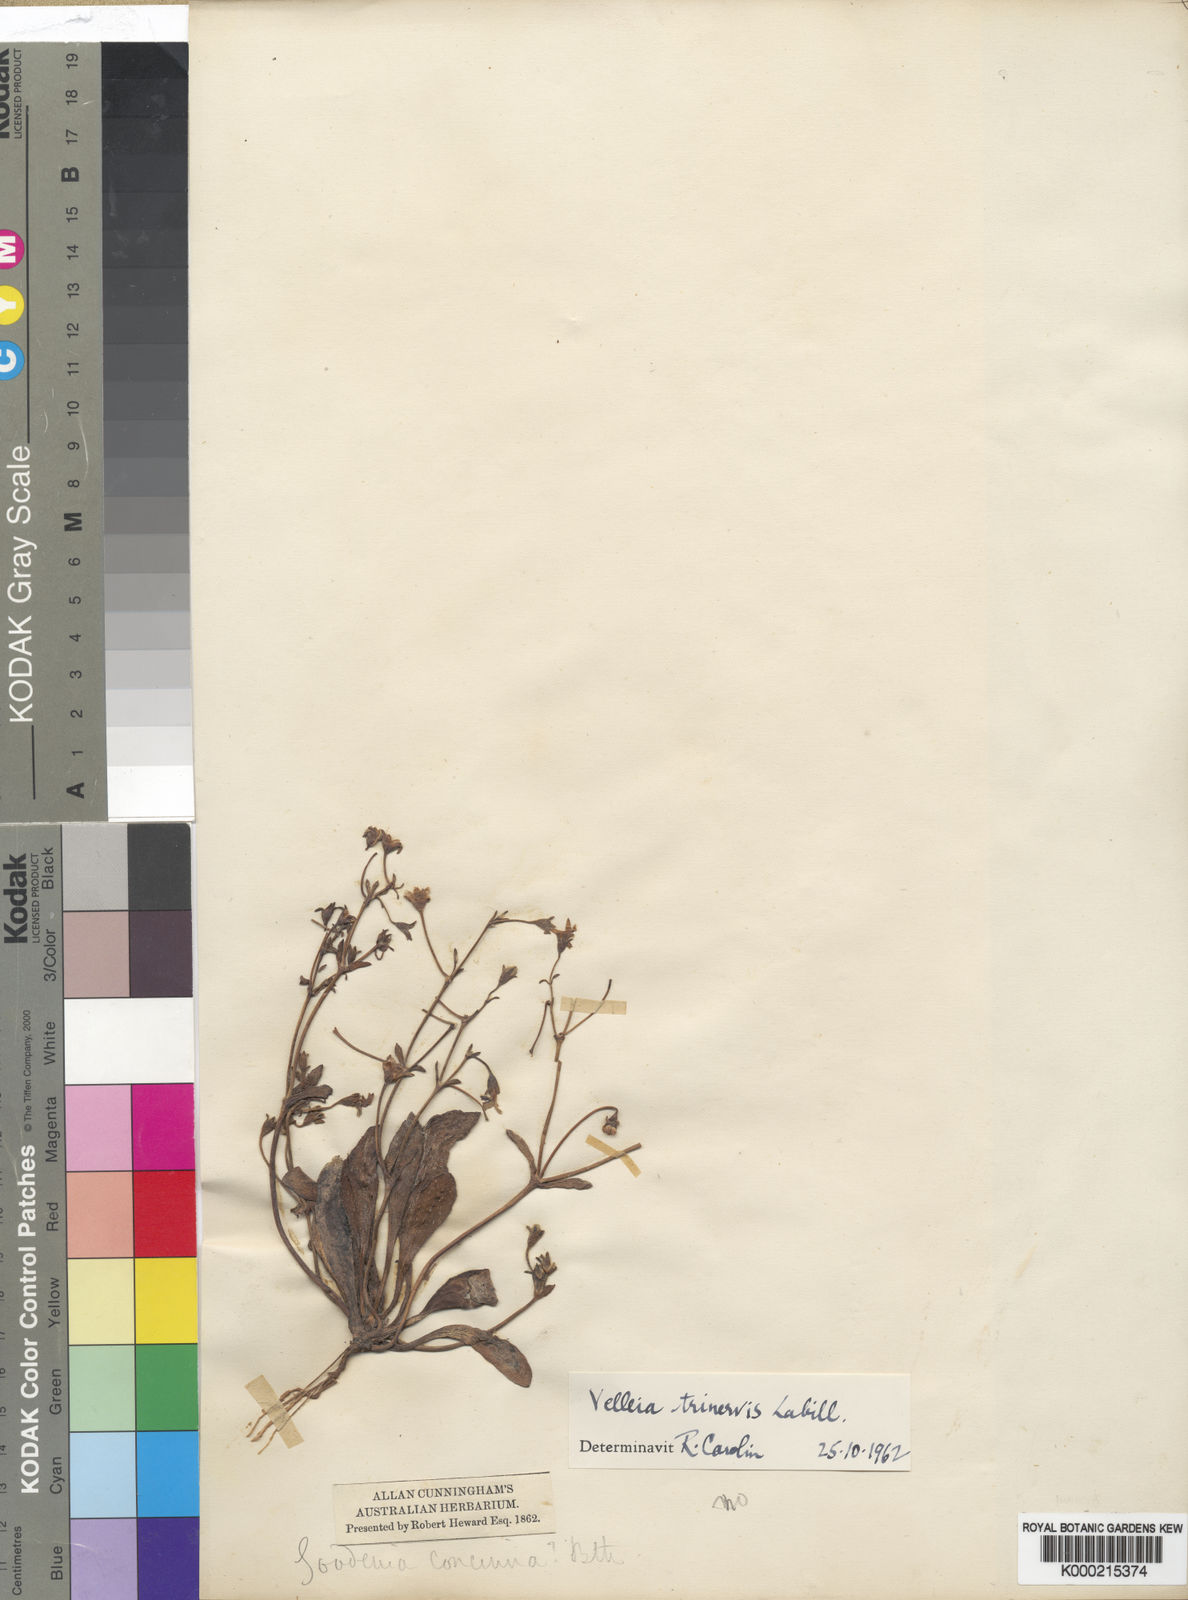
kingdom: Plantae
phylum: Tracheophyta
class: Magnoliopsida
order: Asterales
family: Goodeniaceae
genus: Goodenia
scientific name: Goodenia trinervis
